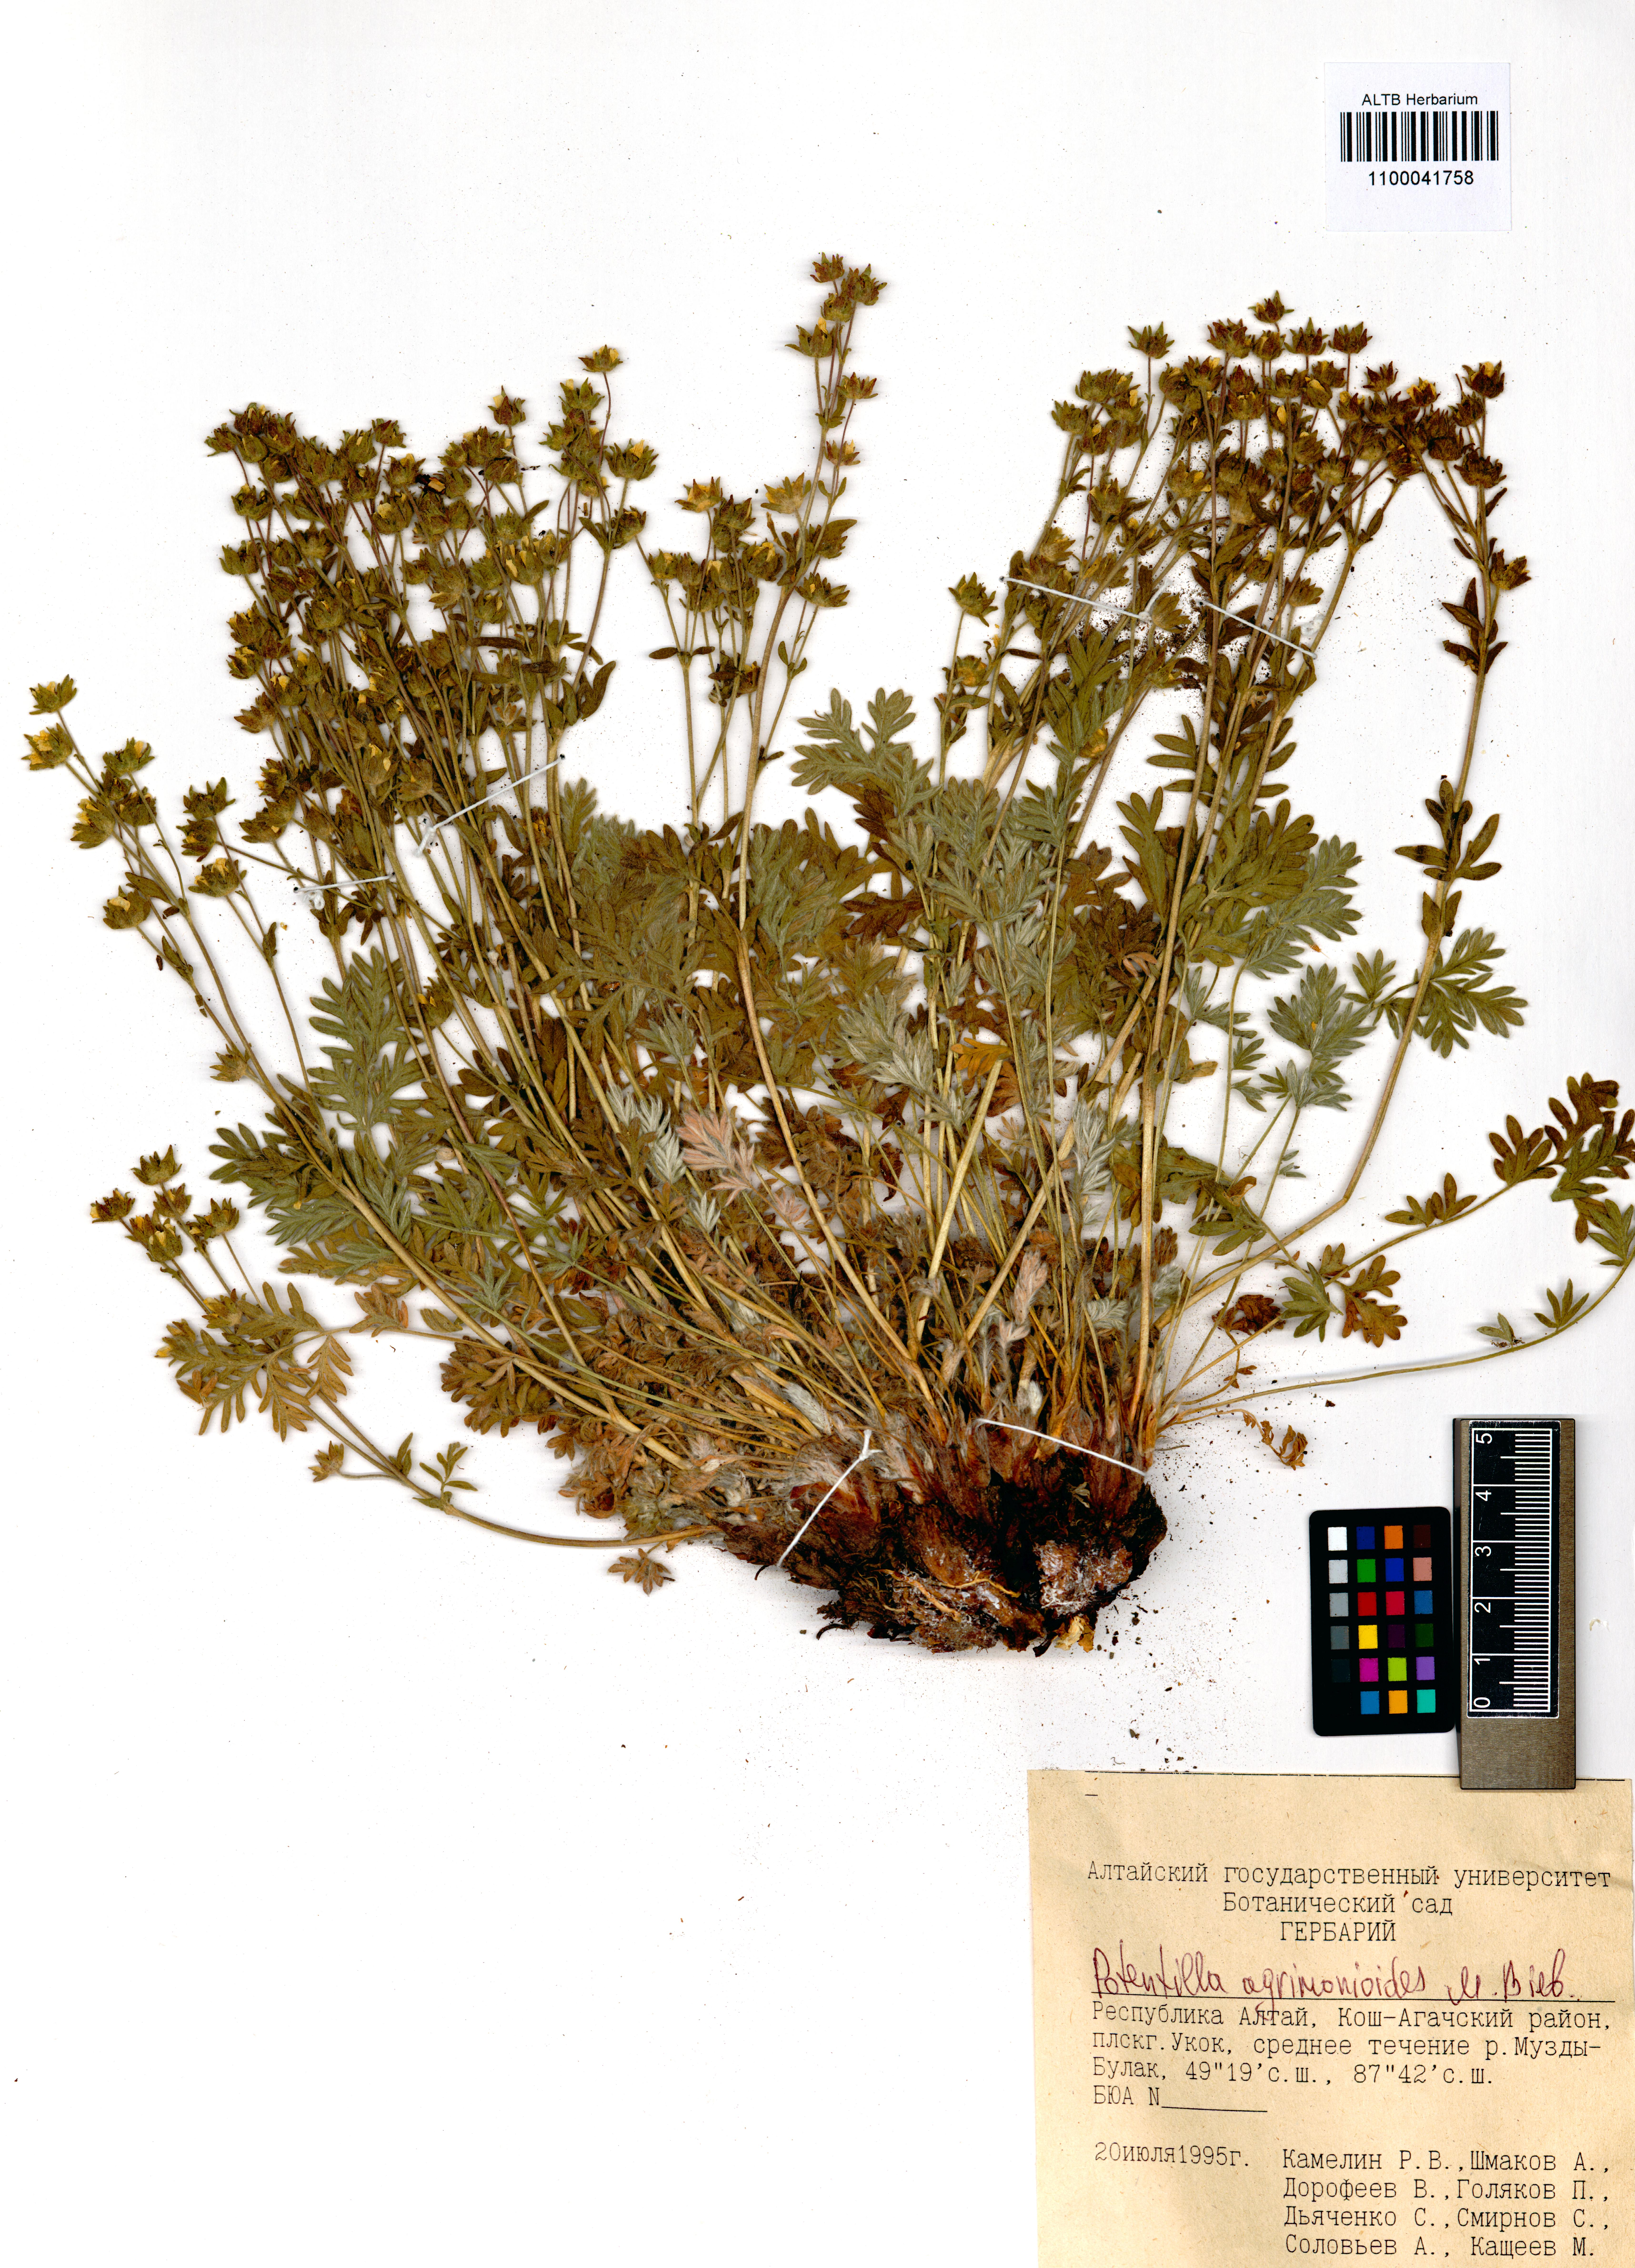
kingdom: Plantae
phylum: Tracheophyta
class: Magnoliopsida
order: Rosales
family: Rosaceae
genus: Potentilla
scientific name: Potentilla agrimonioides
